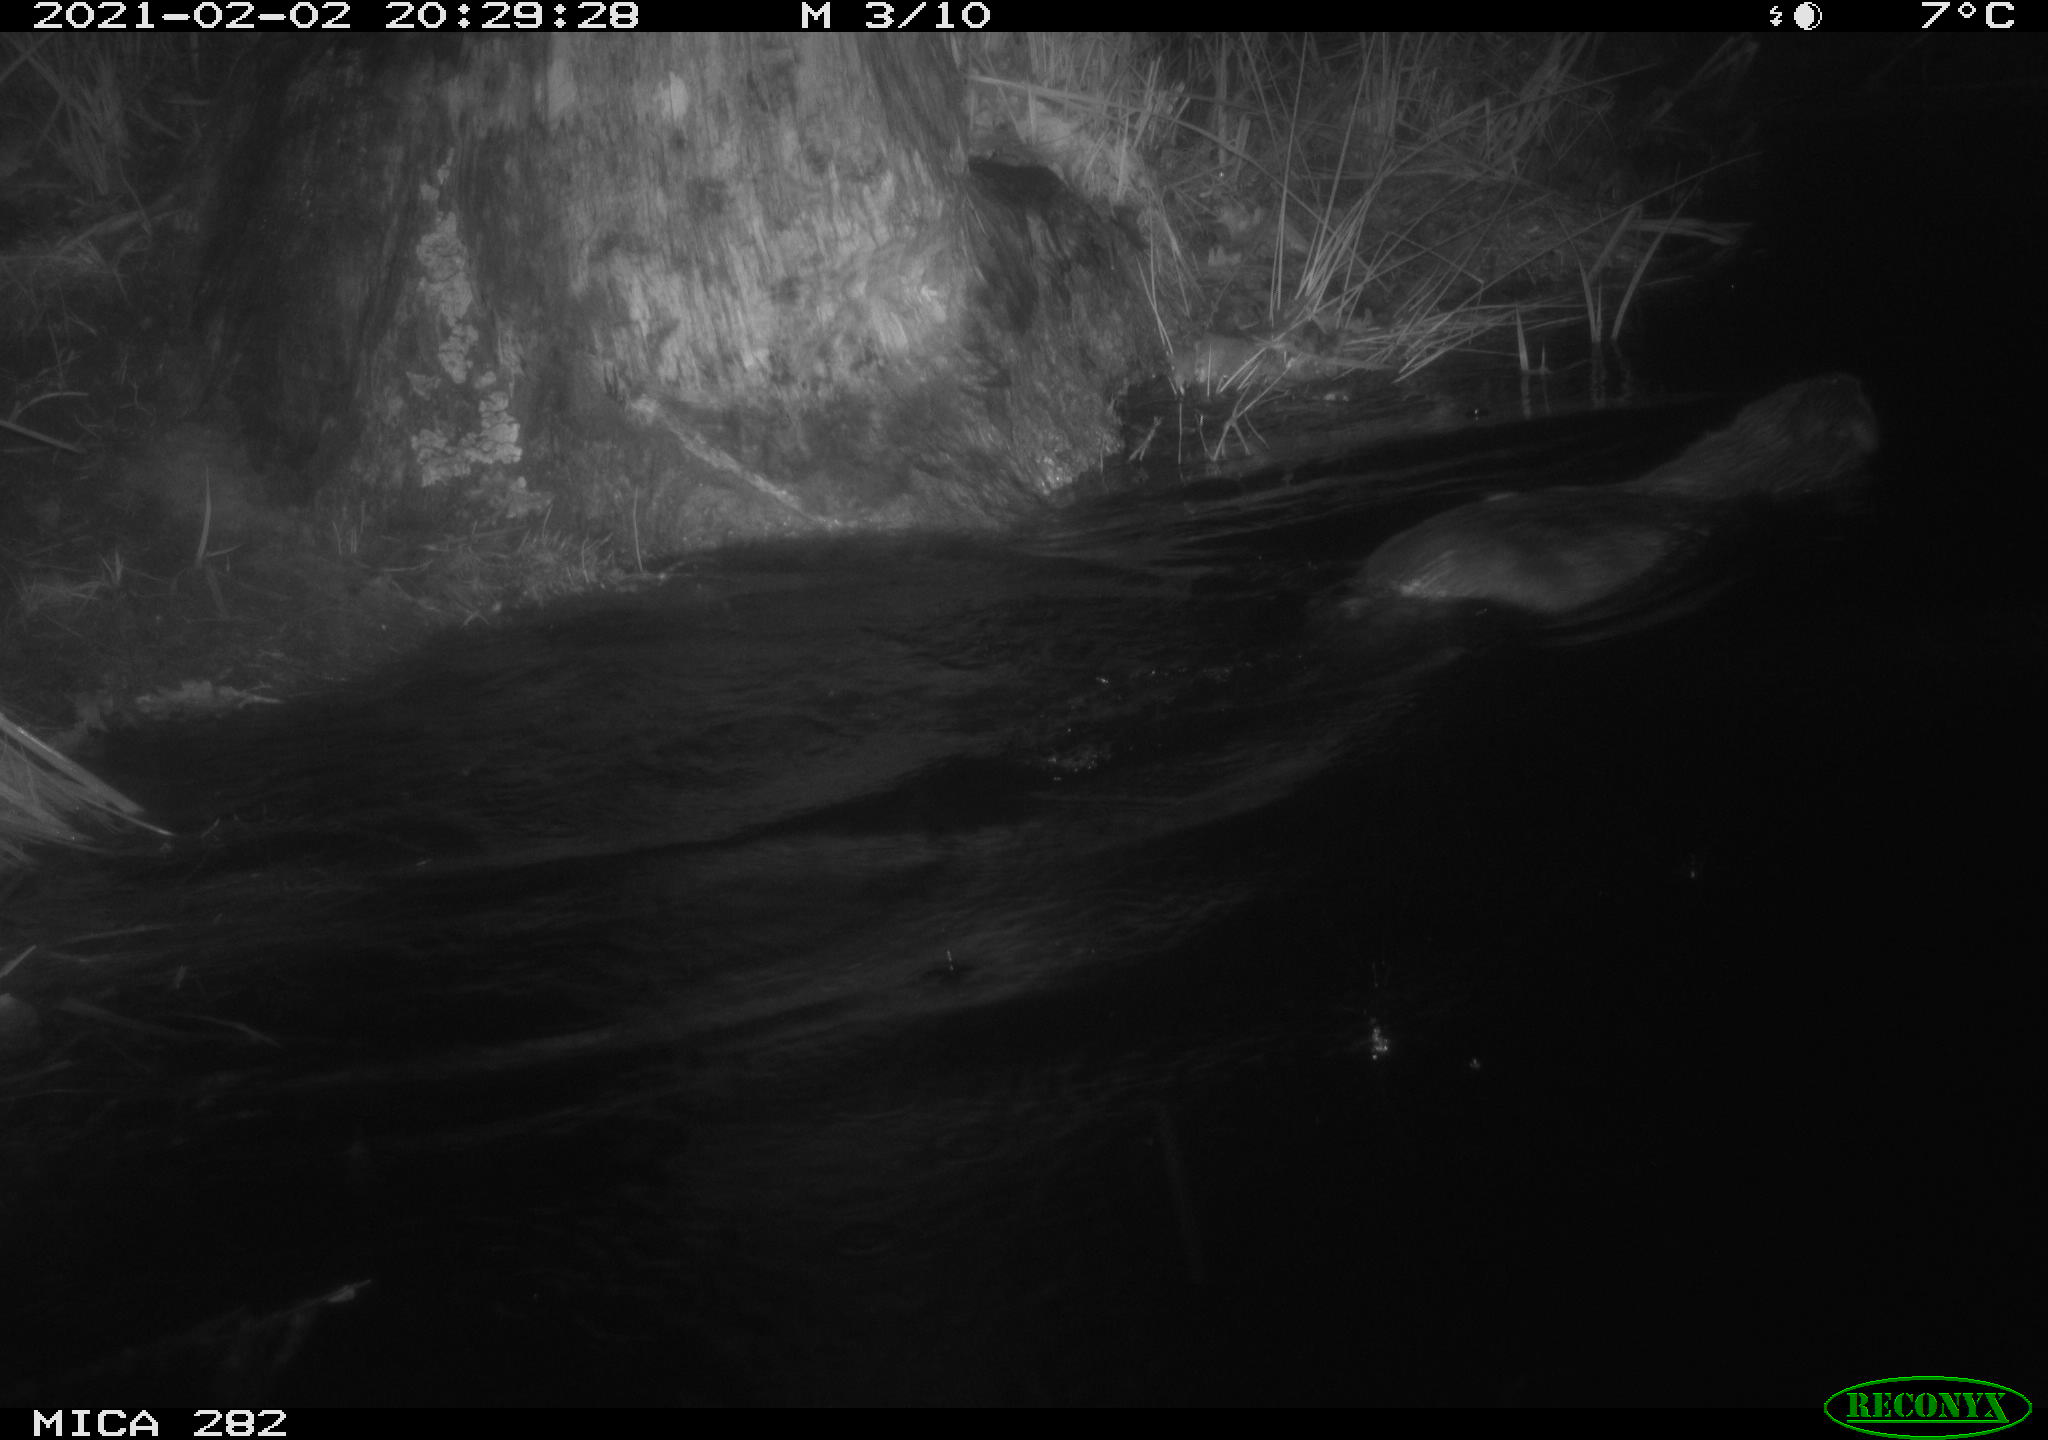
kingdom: Animalia
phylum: Chordata
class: Mammalia
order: Rodentia
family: Castoridae
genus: Castor
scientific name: Castor fiber
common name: Eurasian beaver
